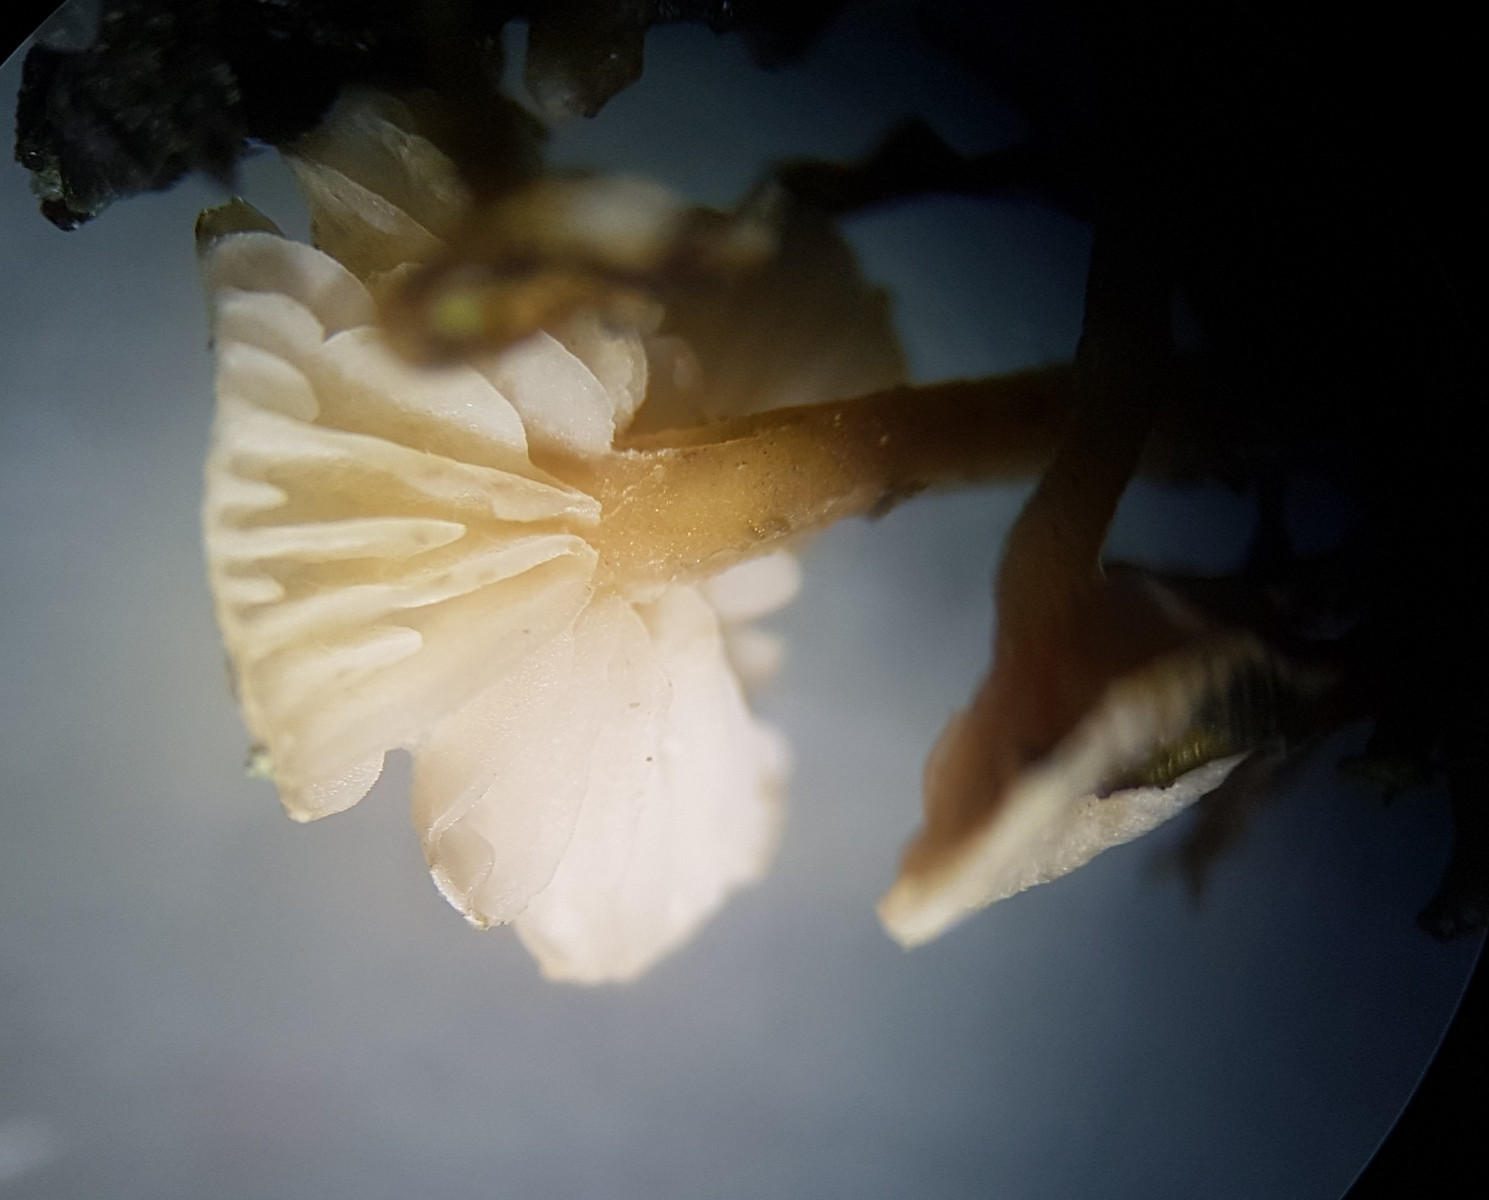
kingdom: Fungi
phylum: Basidiomycota
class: Agaricomycetes
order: Agaricales
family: Tricholomataceae
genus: Collybia
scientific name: Collybia cirrhata
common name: silke-lighat
